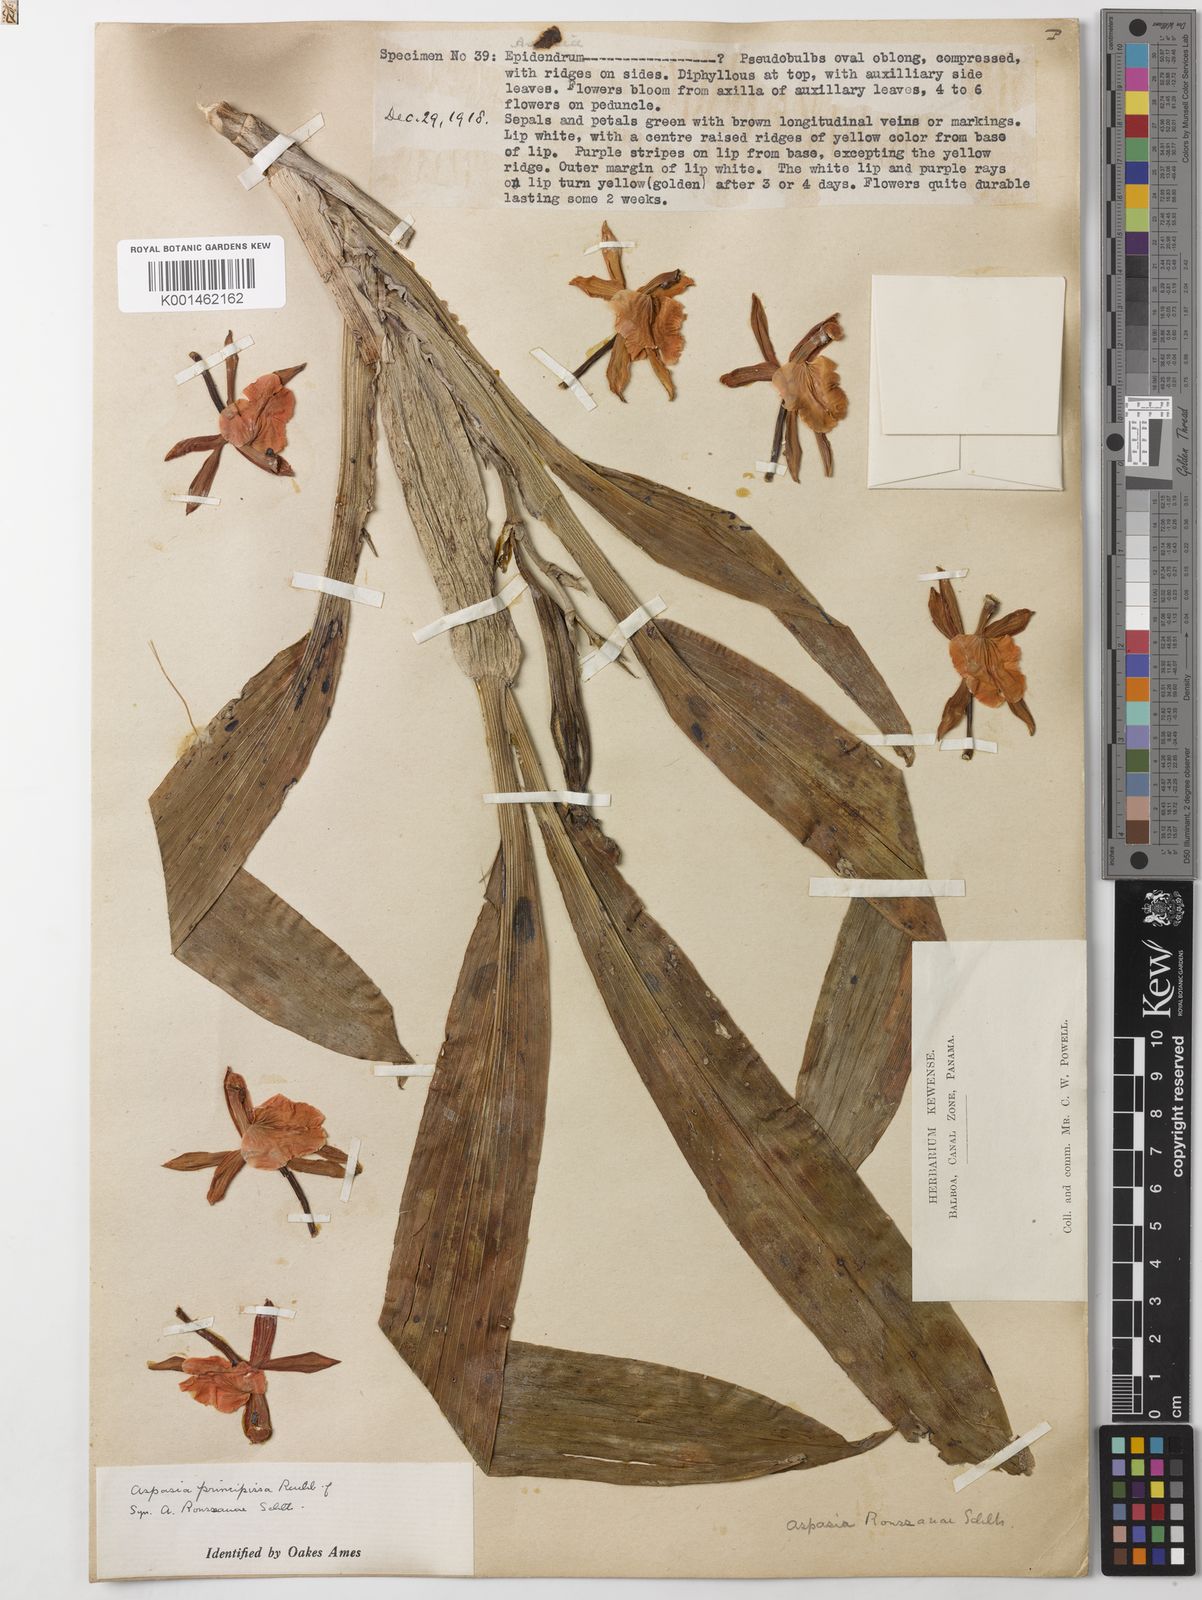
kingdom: Plantae
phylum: Tracheophyta
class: Liliopsida
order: Asparagales
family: Orchidaceae
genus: Aspasia
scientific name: Aspasia epidendroides
